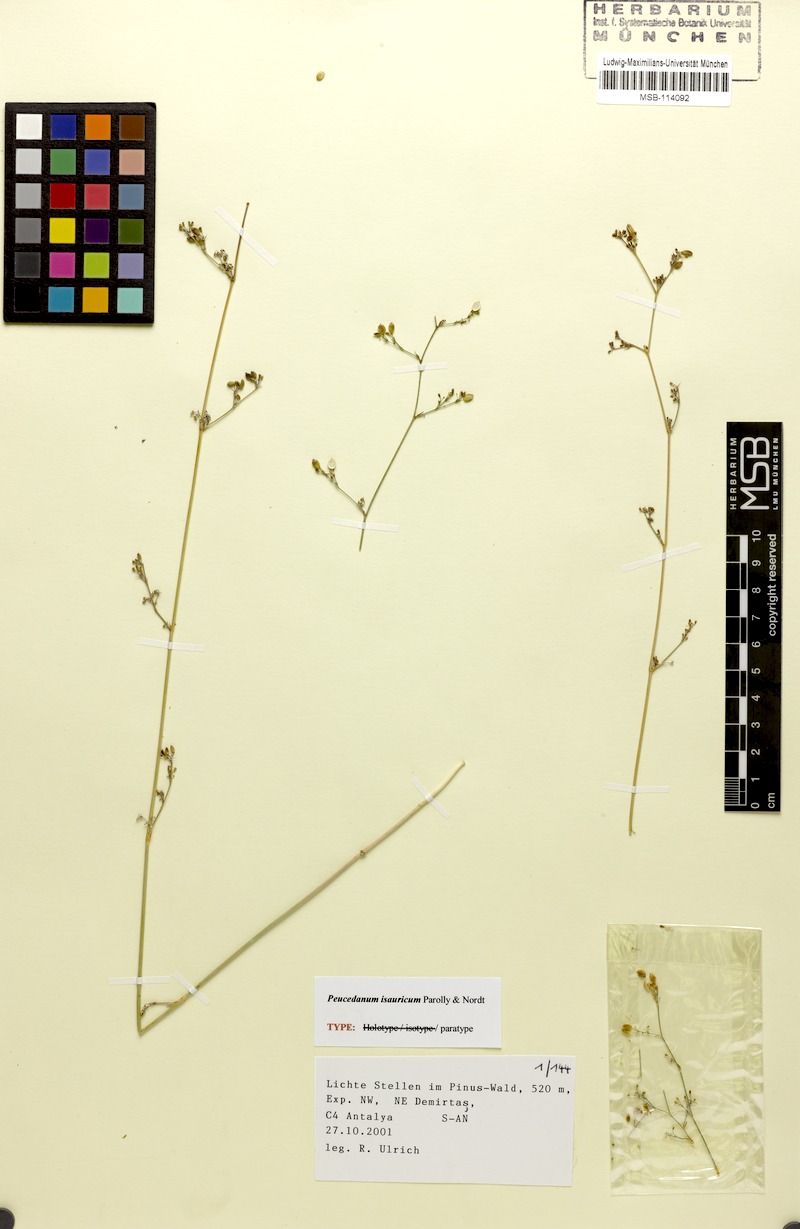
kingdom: Plantae
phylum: Tracheophyta
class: Magnoliopsida
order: Apiales
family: Apiaceae
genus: Dichoropetalum
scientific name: Dichoropetalum isauricum
